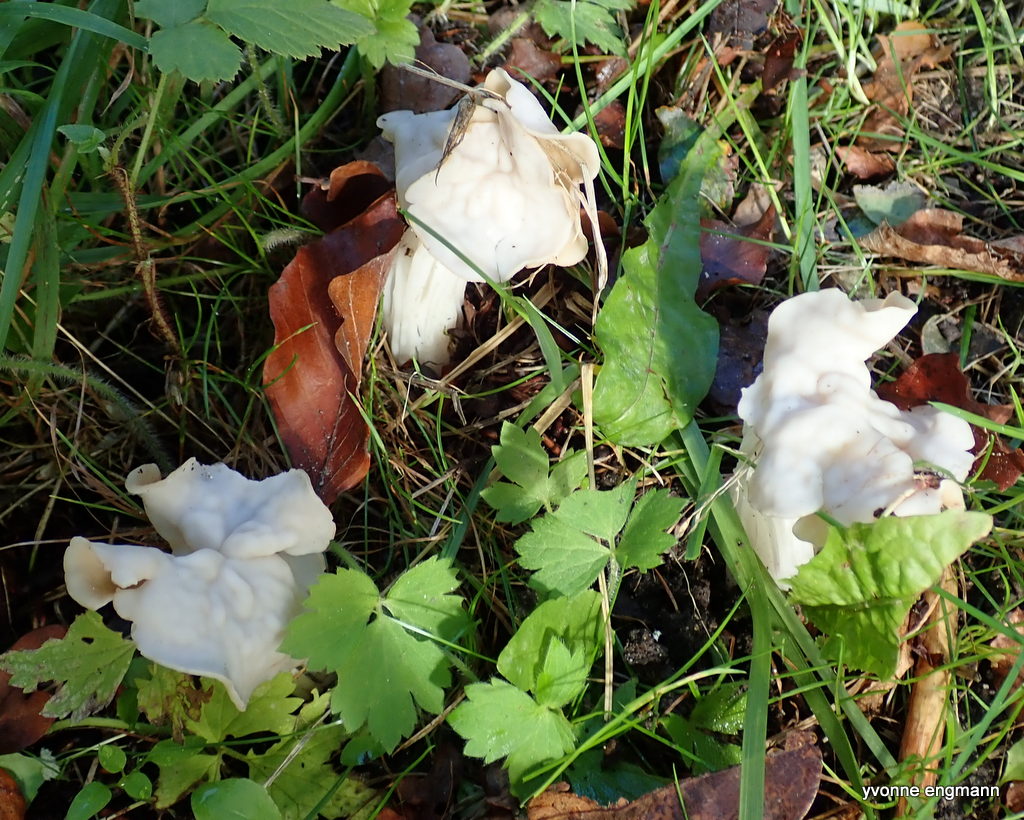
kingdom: Fungi
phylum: Ascomycota
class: Pezizomycetes
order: Pezizales
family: Helvellaceae
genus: Helvella
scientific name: Helvella crispa
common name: kruset foldhat
